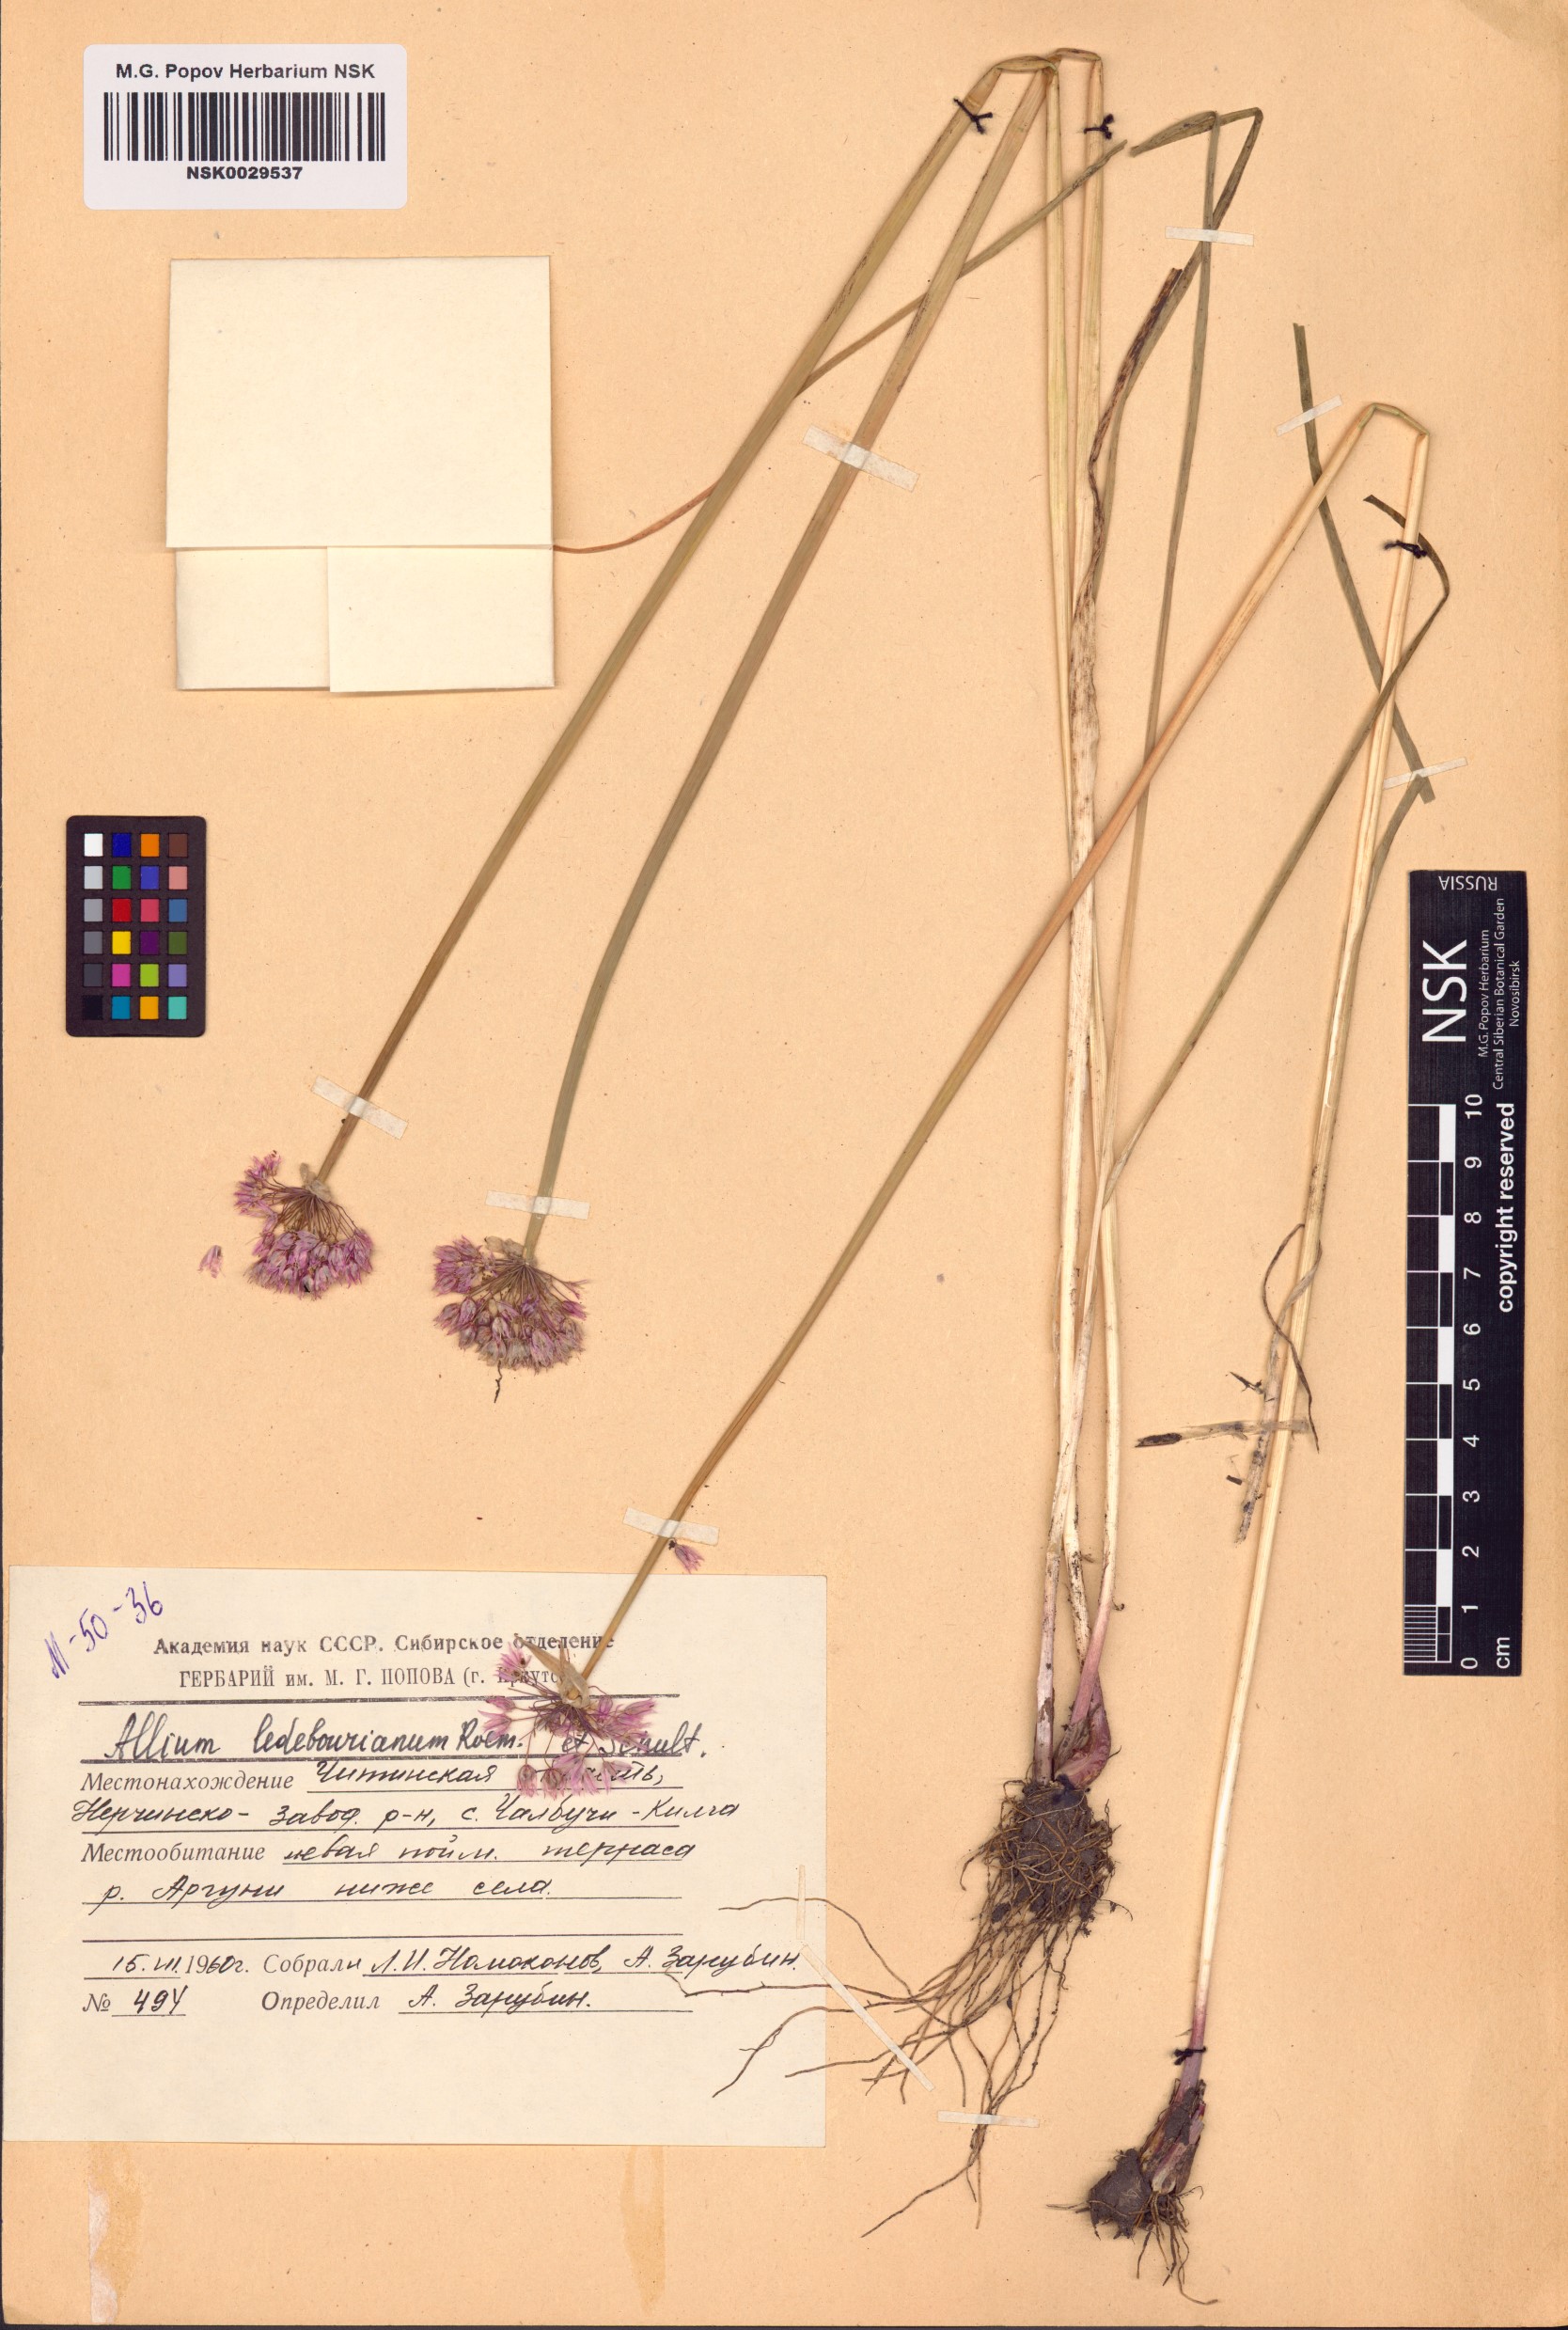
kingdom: Plantae
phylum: Tracheophyta
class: Liliopsida
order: Asparagales
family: Amaryllidaceae
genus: Allium
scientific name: Allium ledebourianum
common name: Ledebour chive
